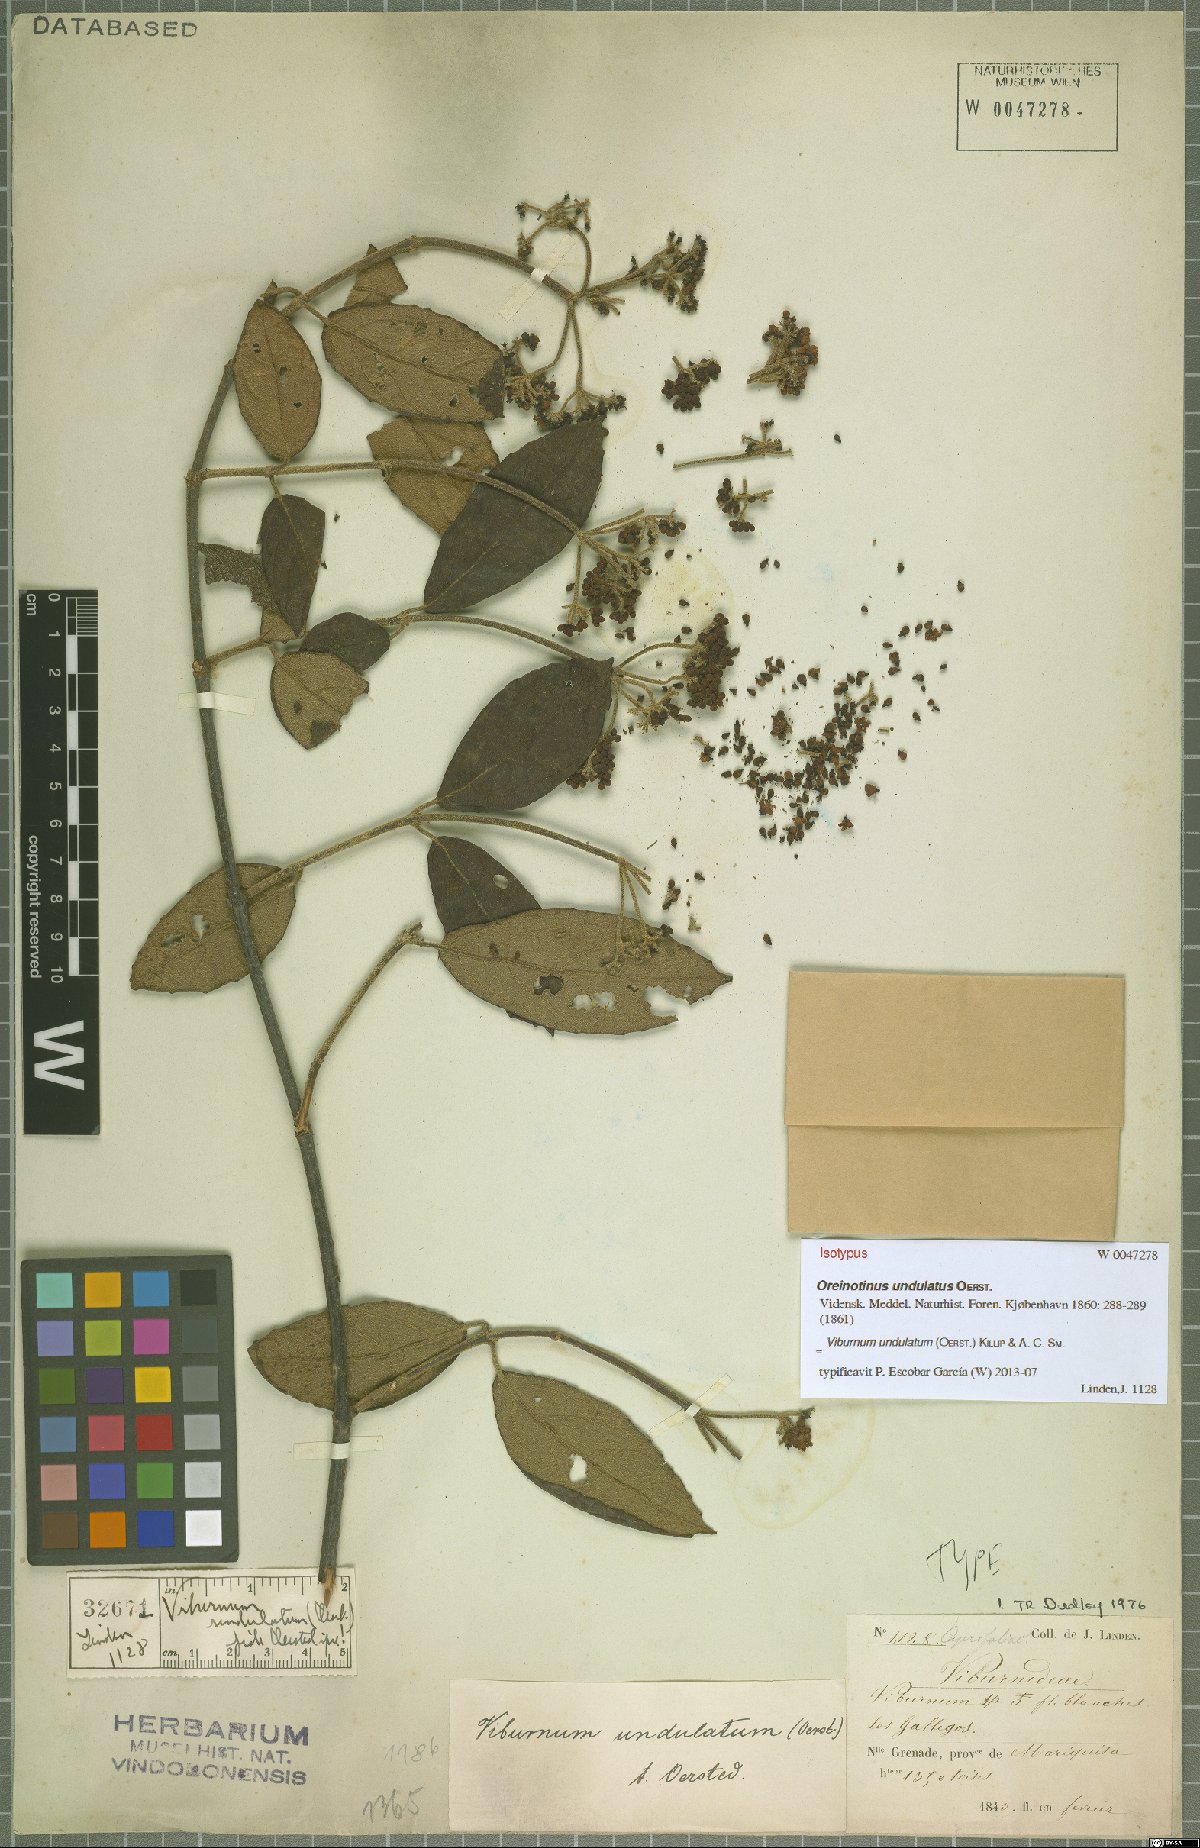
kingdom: Plantae
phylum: Tracheophyta
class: Magnoliopsida
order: Dipsacales
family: Viburnaceae
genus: Viburnum
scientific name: Viburnum undulatum
